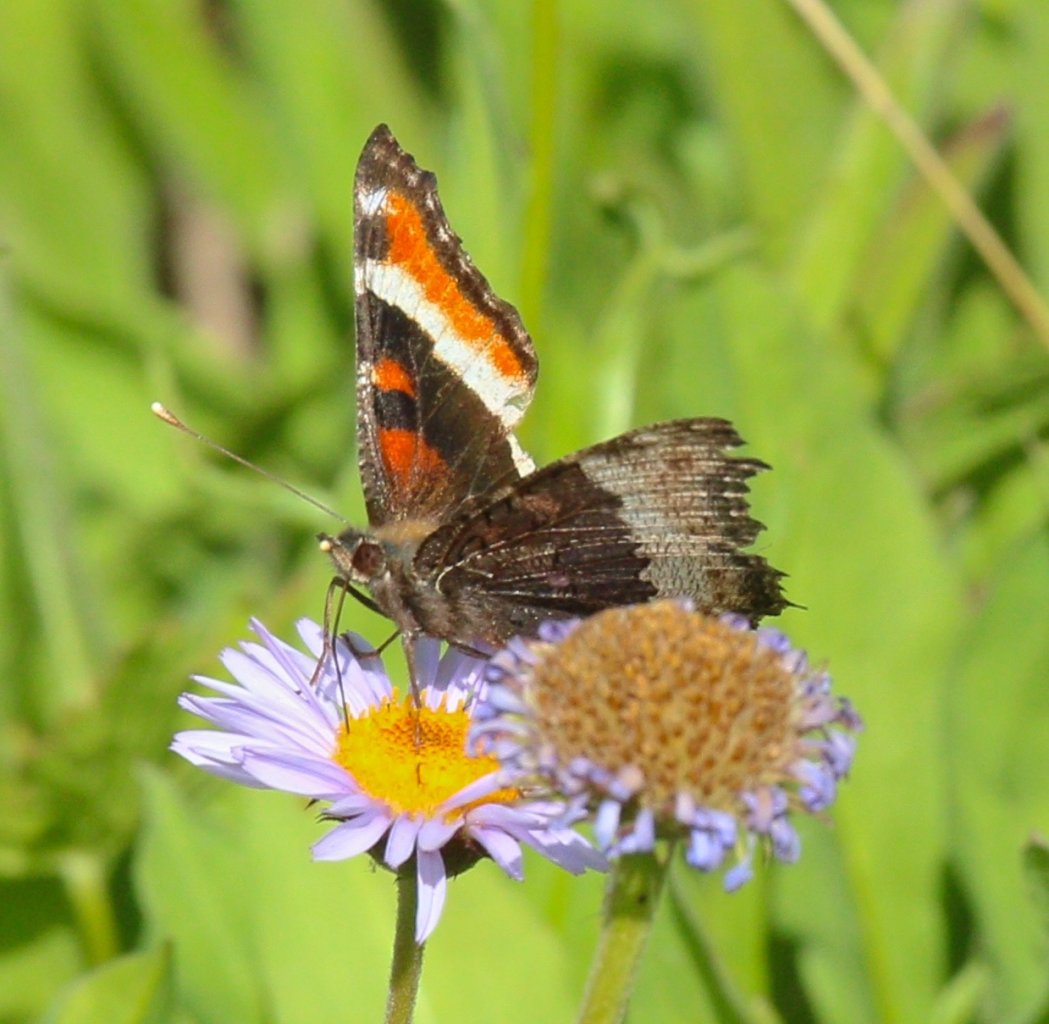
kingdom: Animalia
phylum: Arthropoda
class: Insecta
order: Lepidoptera
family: Nymphalidae
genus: Aglais
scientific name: Aglais milberti
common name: Milbert's Tortoiseshell
